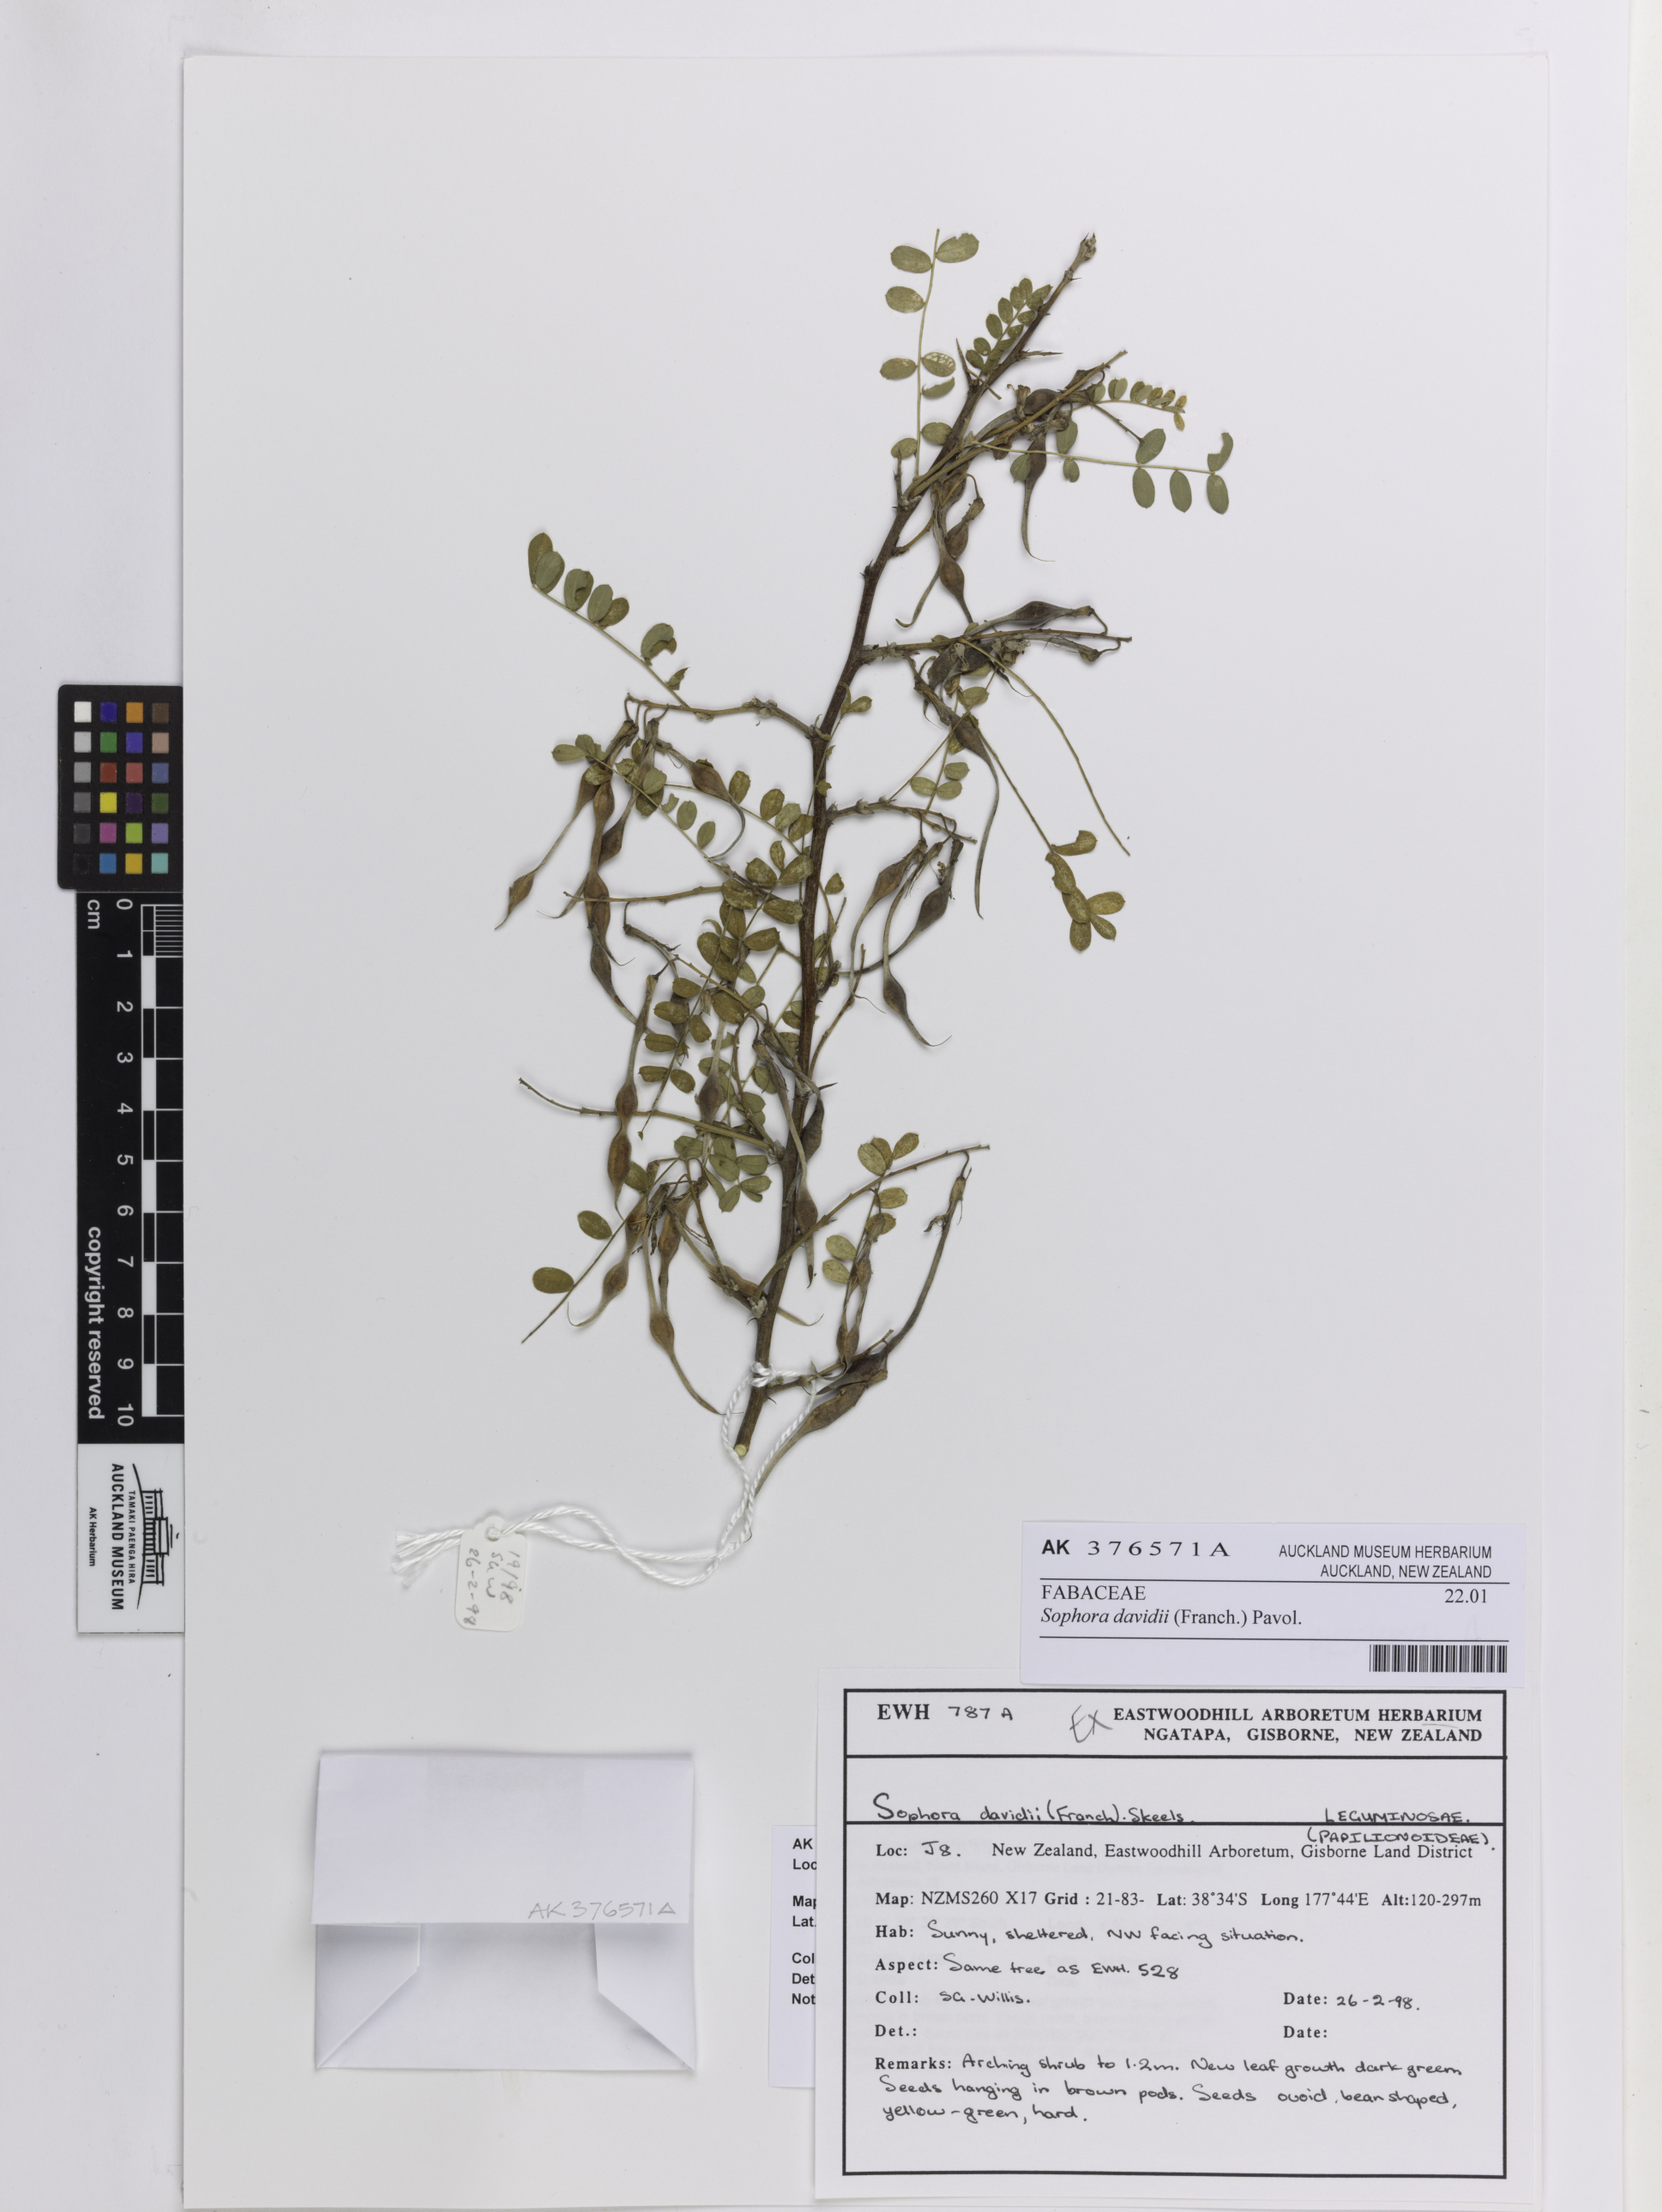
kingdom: Plantae
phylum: Tracheophyta
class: Magnoliopsida
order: Fabales
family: Fabaceae
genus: Sophora
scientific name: Sophora davidii
